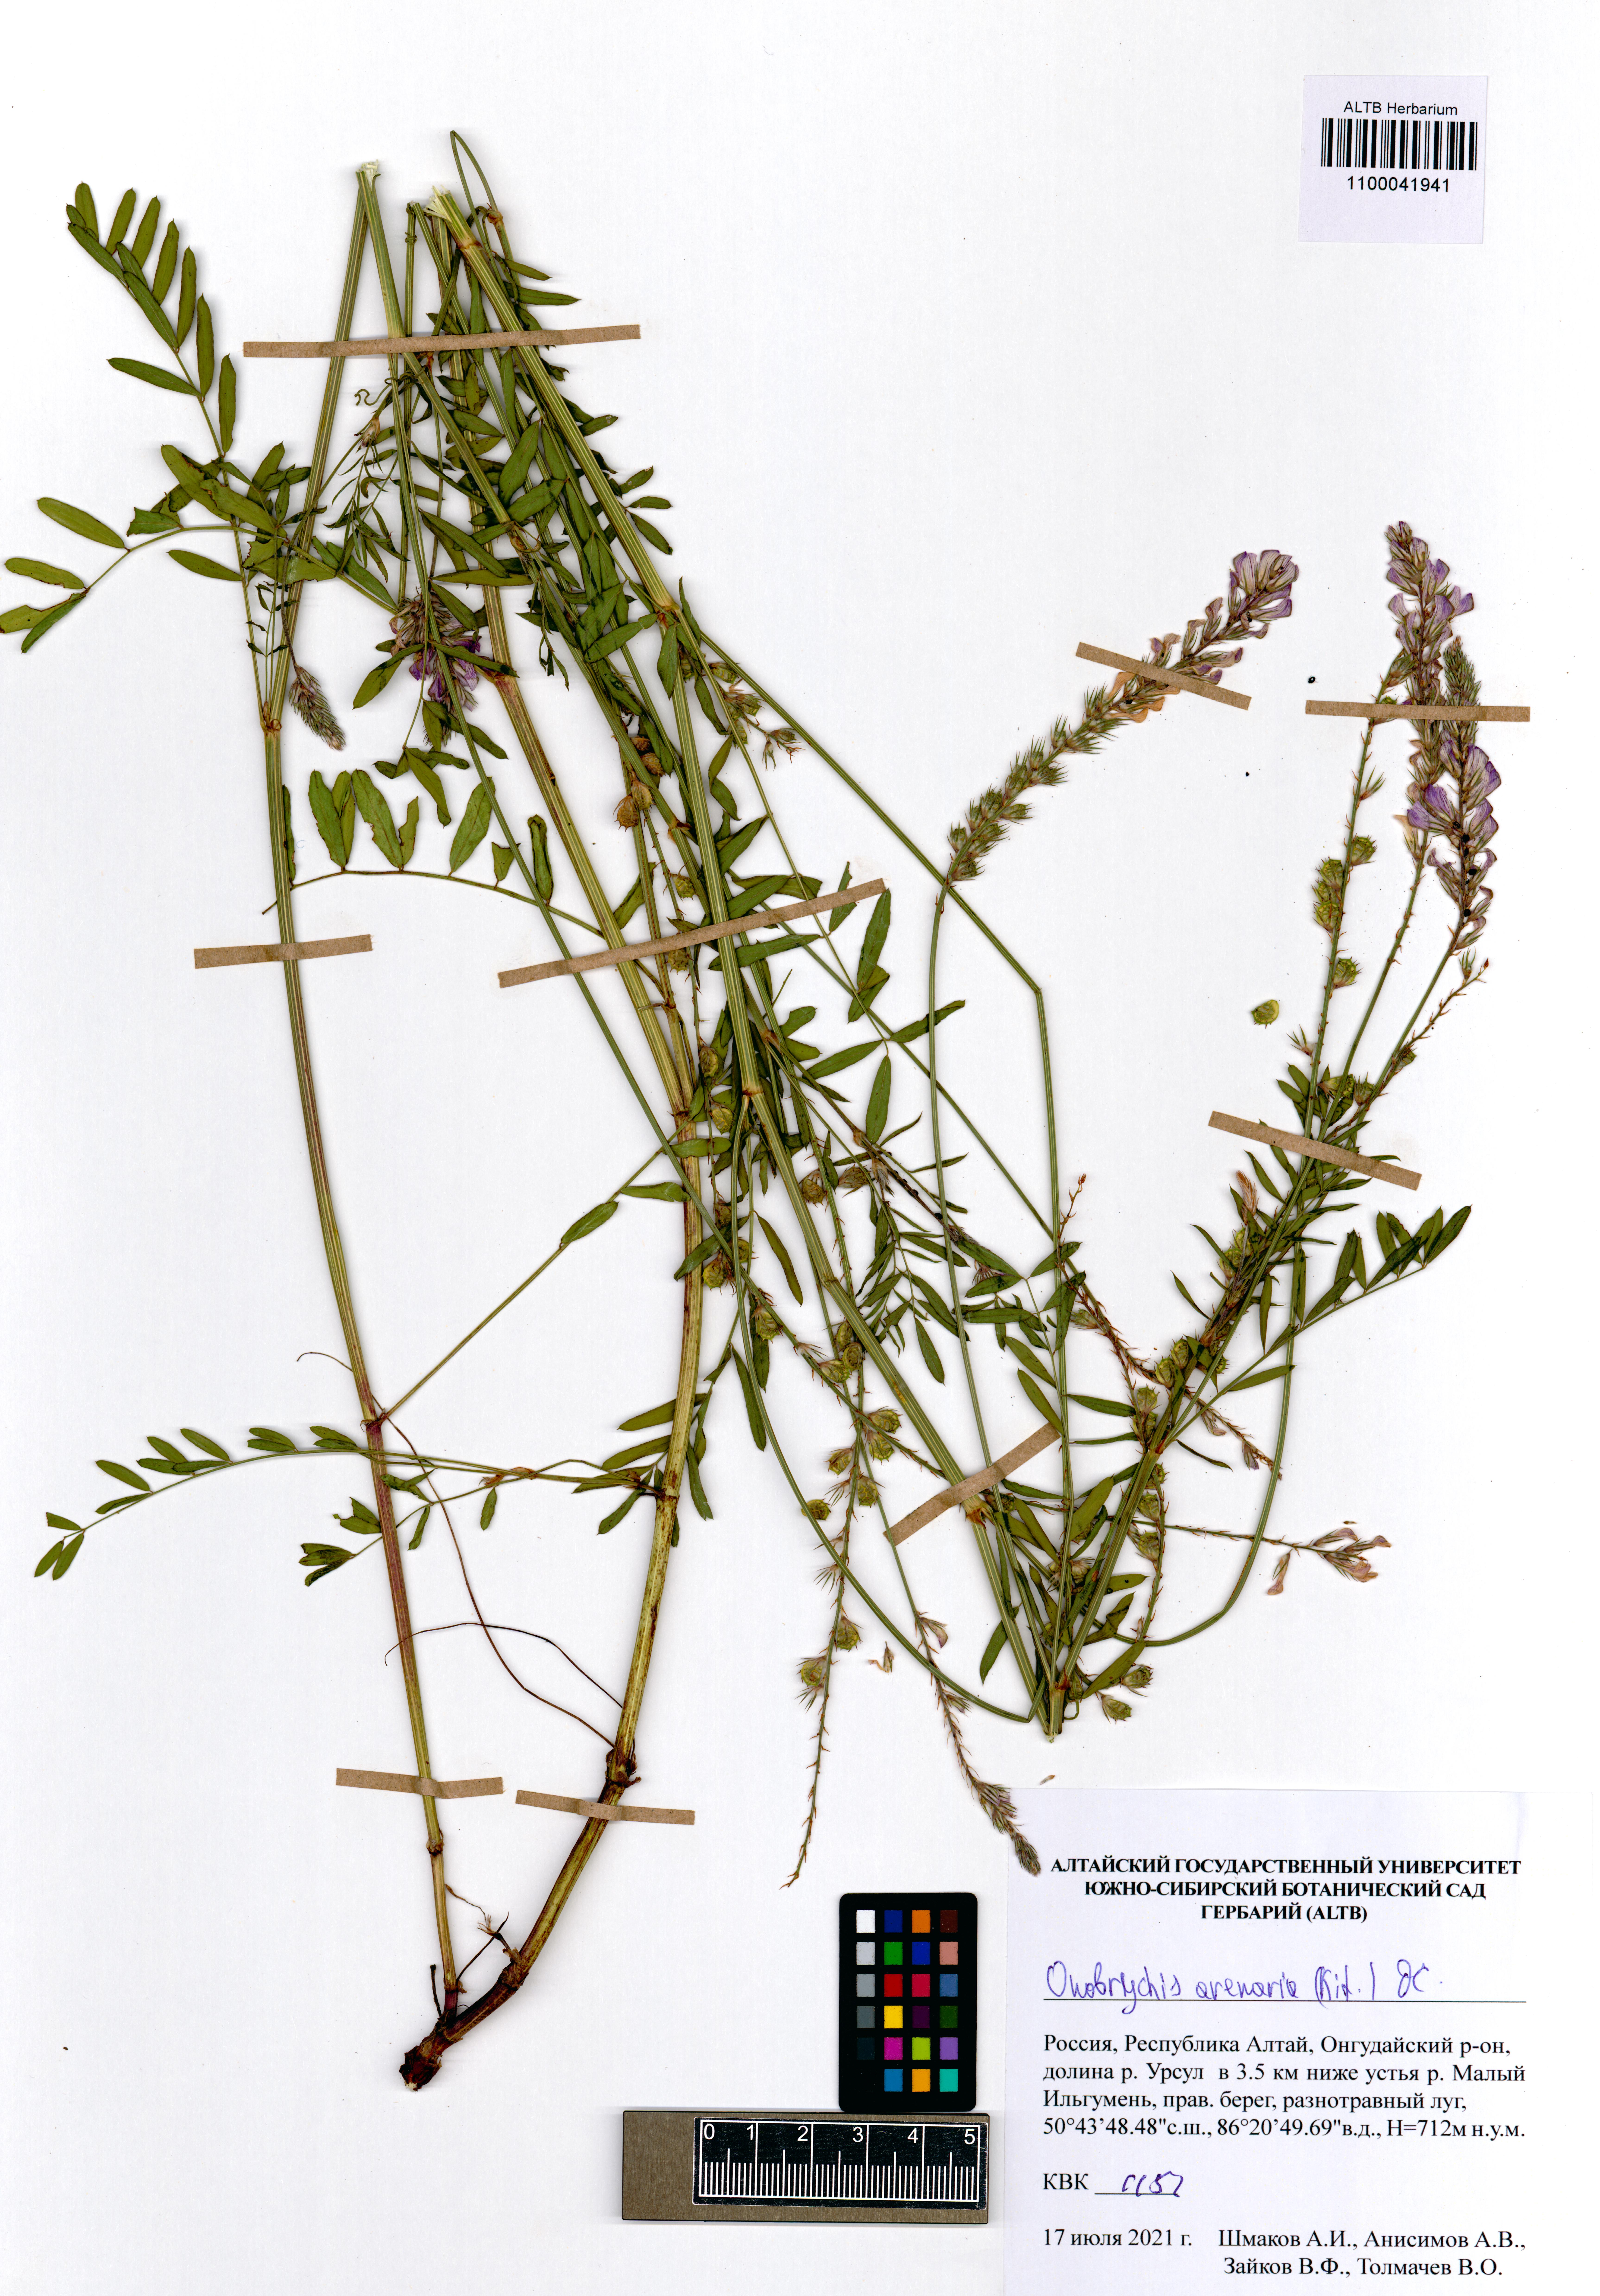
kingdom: Plantae
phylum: Tracheophyta
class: Magnoliopsida
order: Fabales
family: Fabaceae
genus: Onobrychis
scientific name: Onobrychis arenaria
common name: Sand esparcet
